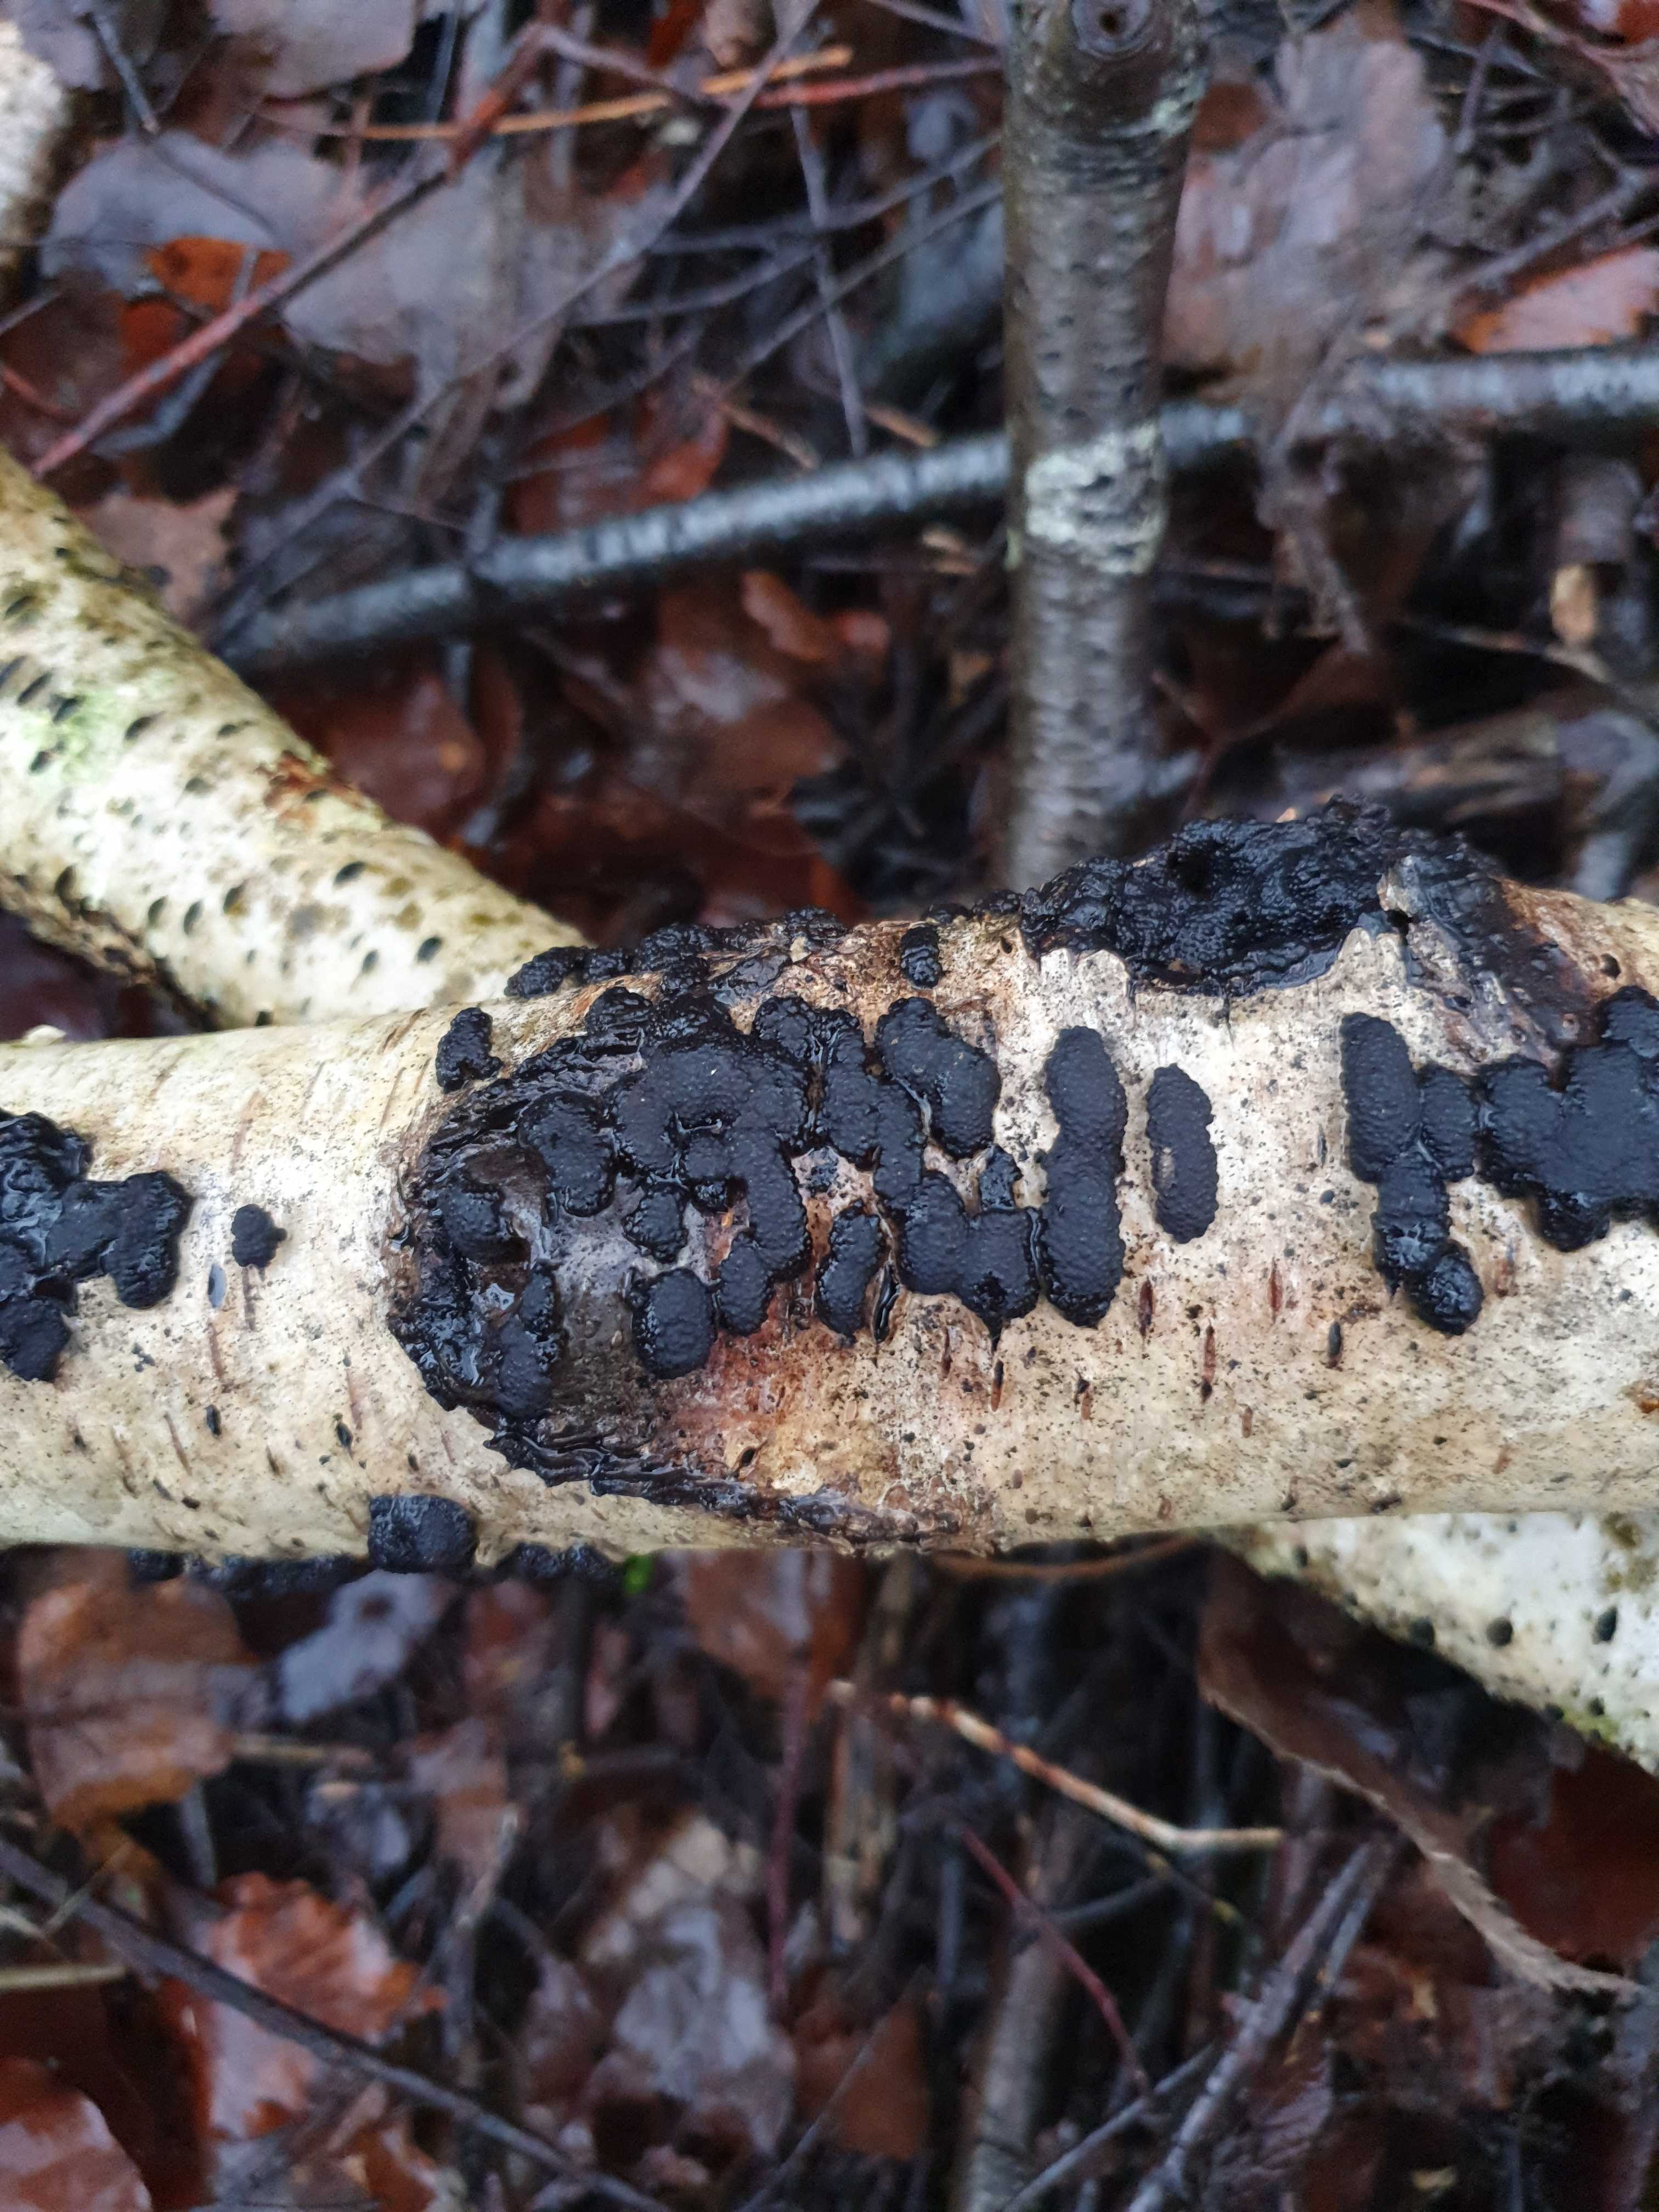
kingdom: Fungi
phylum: Ascomycota
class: Sordariomycetes
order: Xylariales
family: Hypoxylaceae
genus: Jackrogersella
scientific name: Jackrogersella multiformis
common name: foranderlig kulbær
